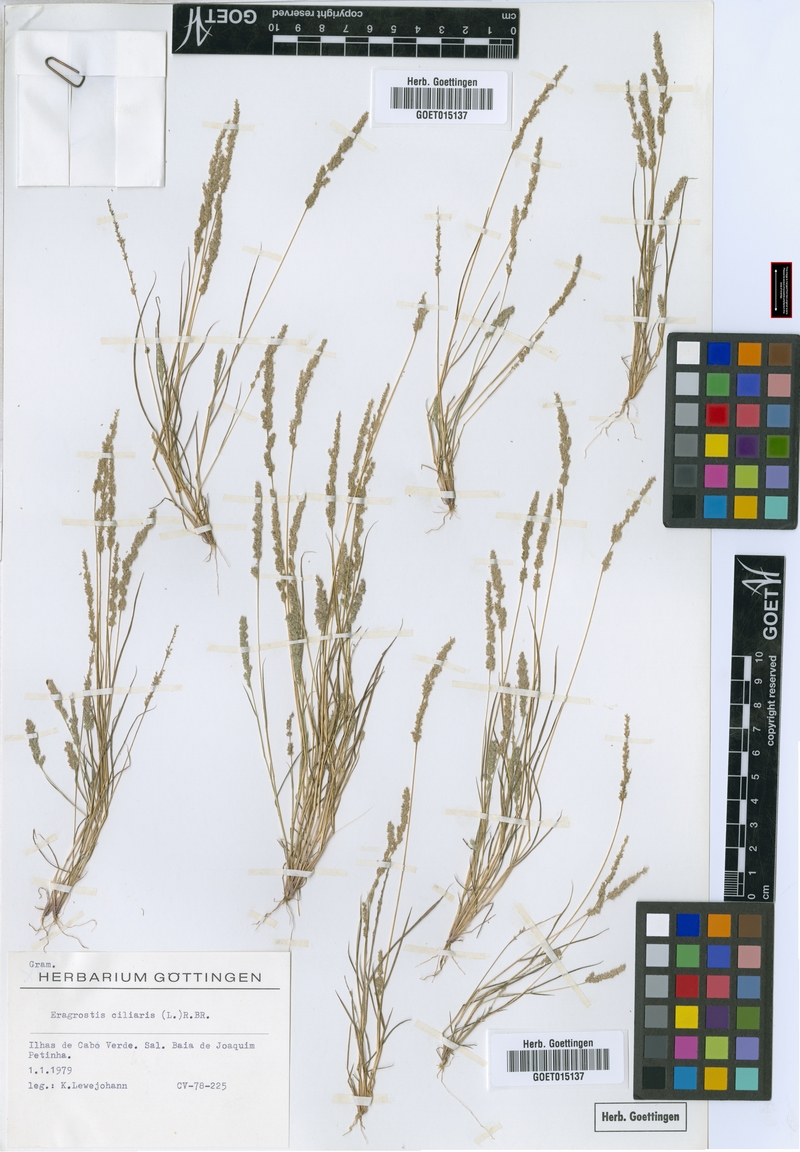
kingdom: Plantae
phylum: Tracheophyta
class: Liliopsida
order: Poales
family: Poaceae
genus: Eragrostis
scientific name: Eragrostis ciliaris
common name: Gophertail lovegrass
